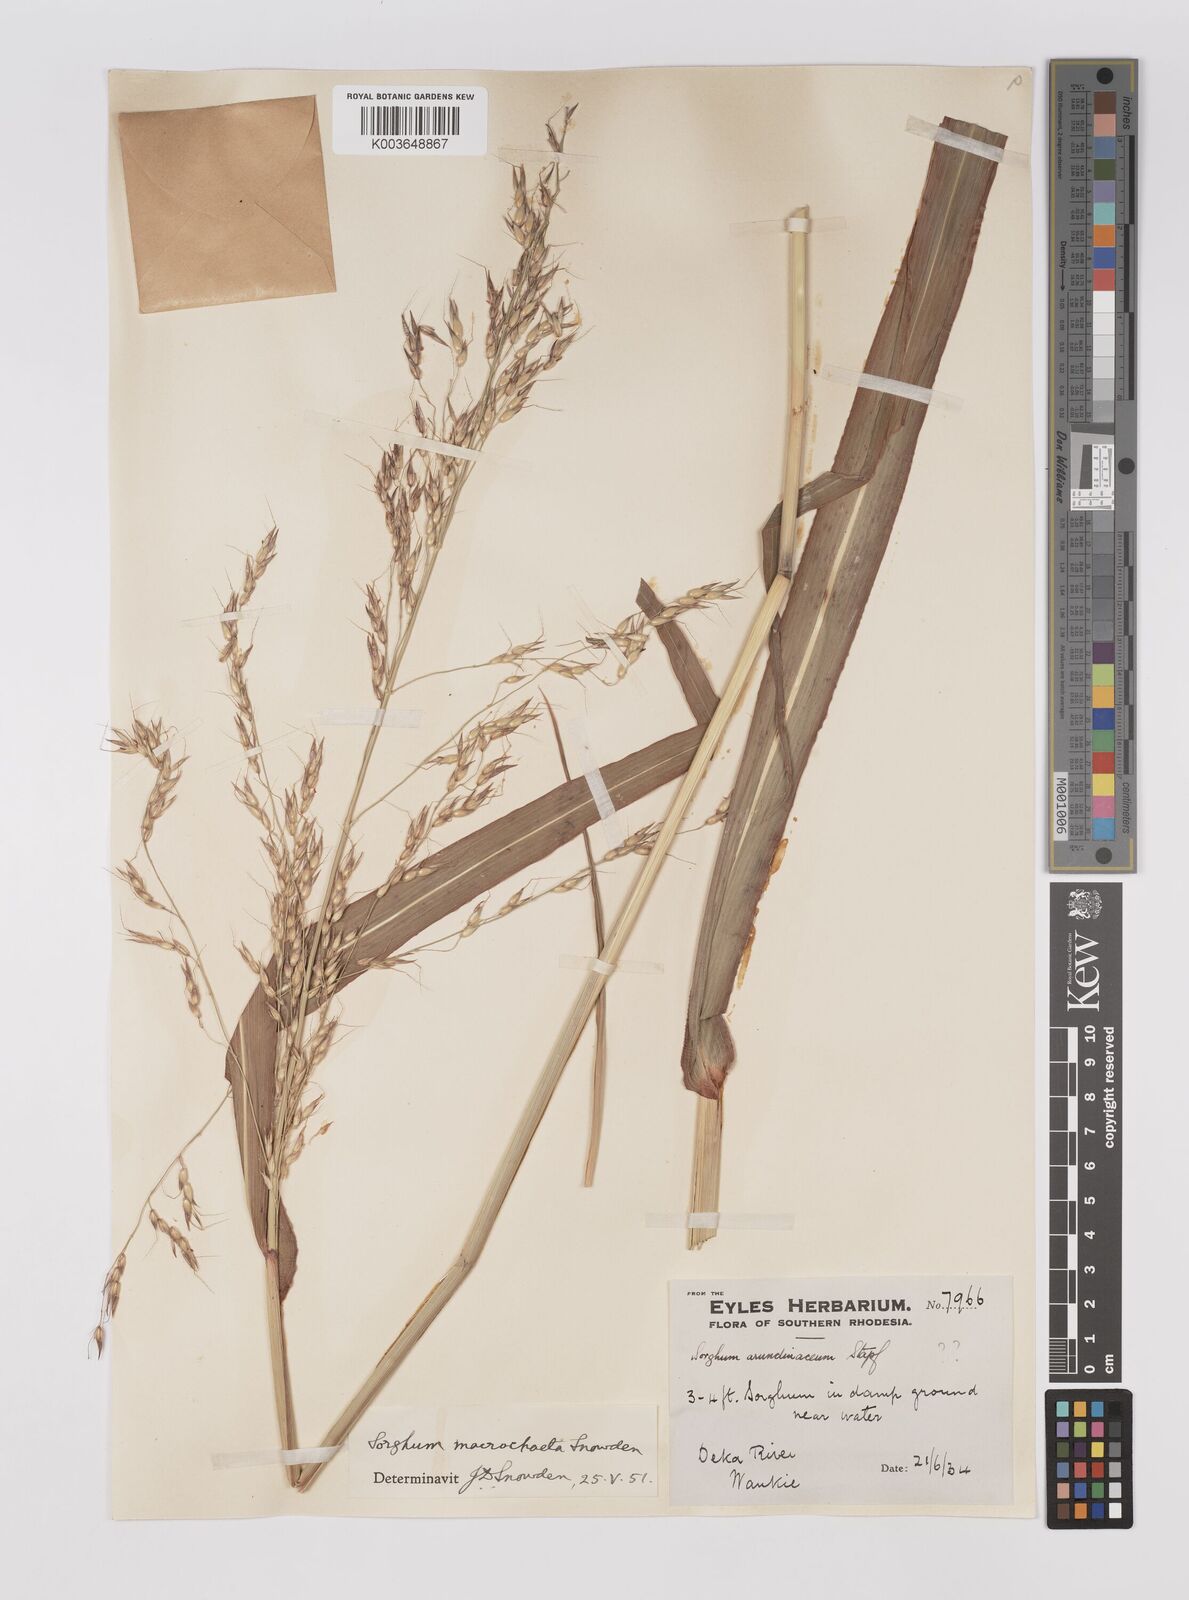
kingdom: Plantae
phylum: Tracheophyta
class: Liliopsida
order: Poales
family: Poaceae
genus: Sorghum
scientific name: Sorghum arundinaceum
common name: Sorghum
